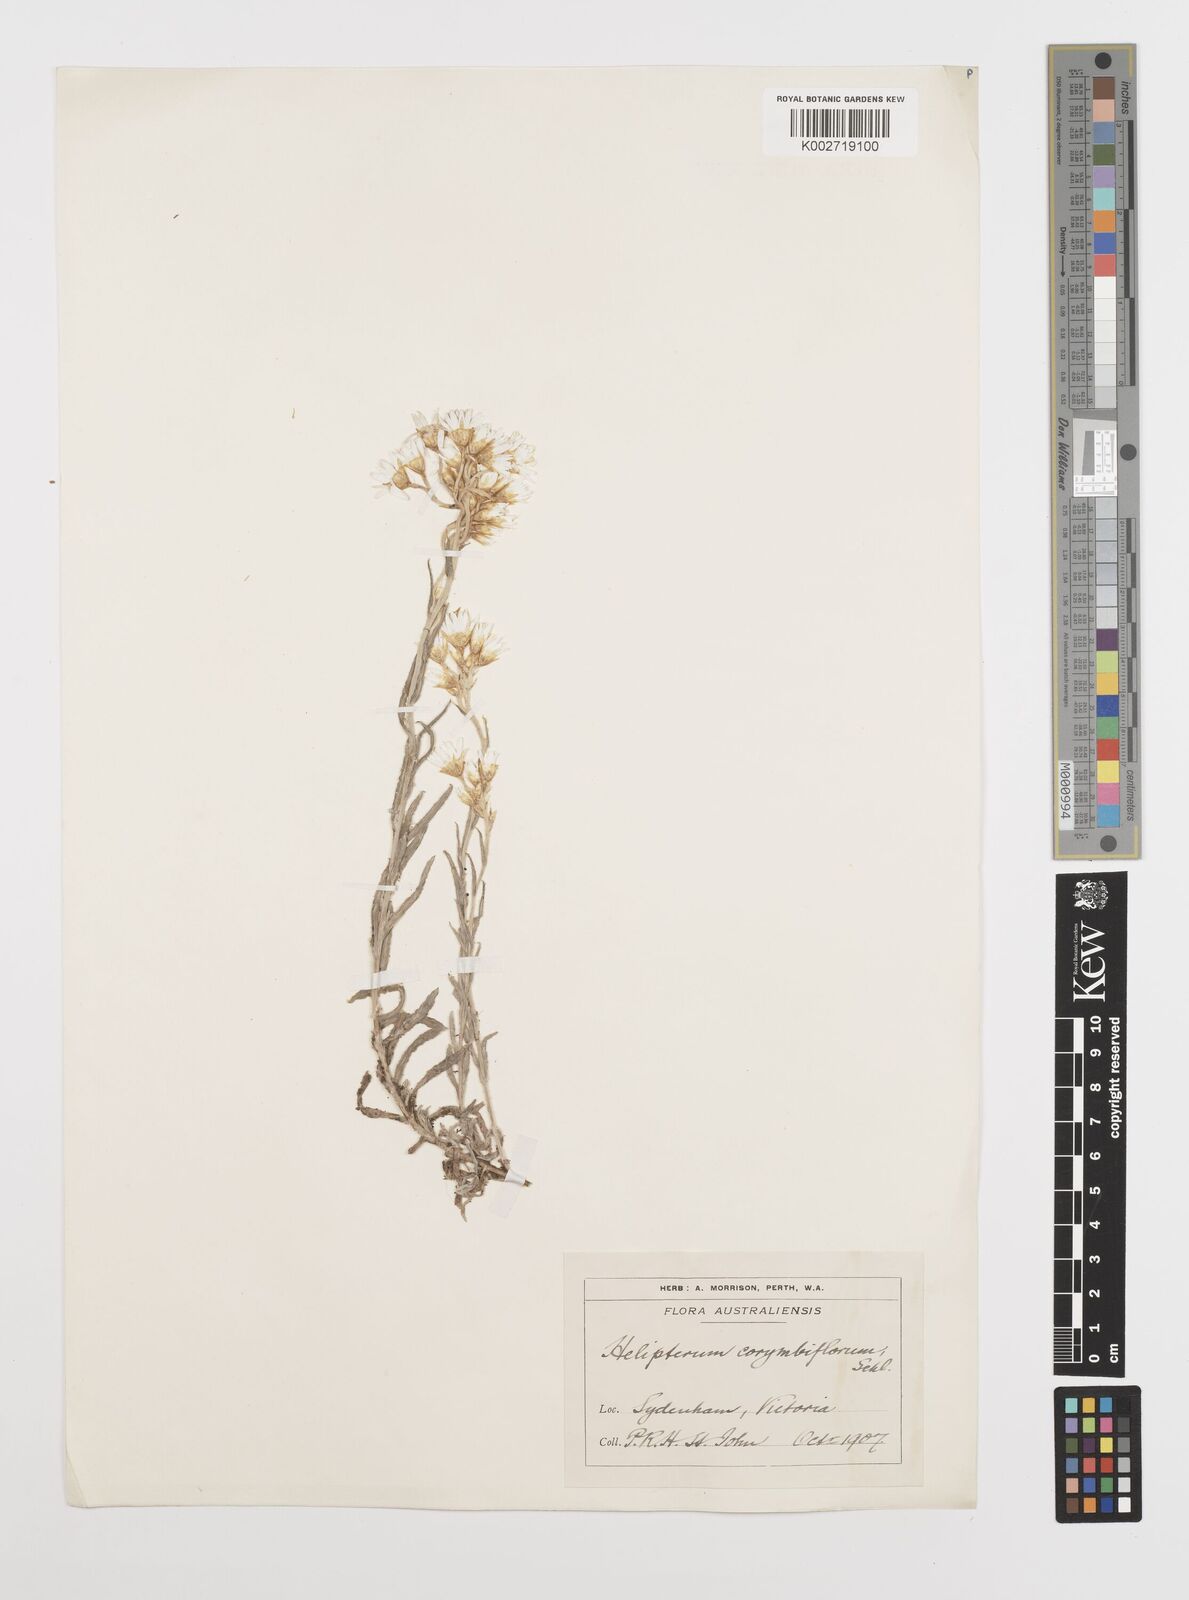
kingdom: Plantae
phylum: Tracheophyta
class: Magnoliopsida
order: Asterales
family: Asteraceae
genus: Rhodanthe
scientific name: Rhodanthe corymbiflora
